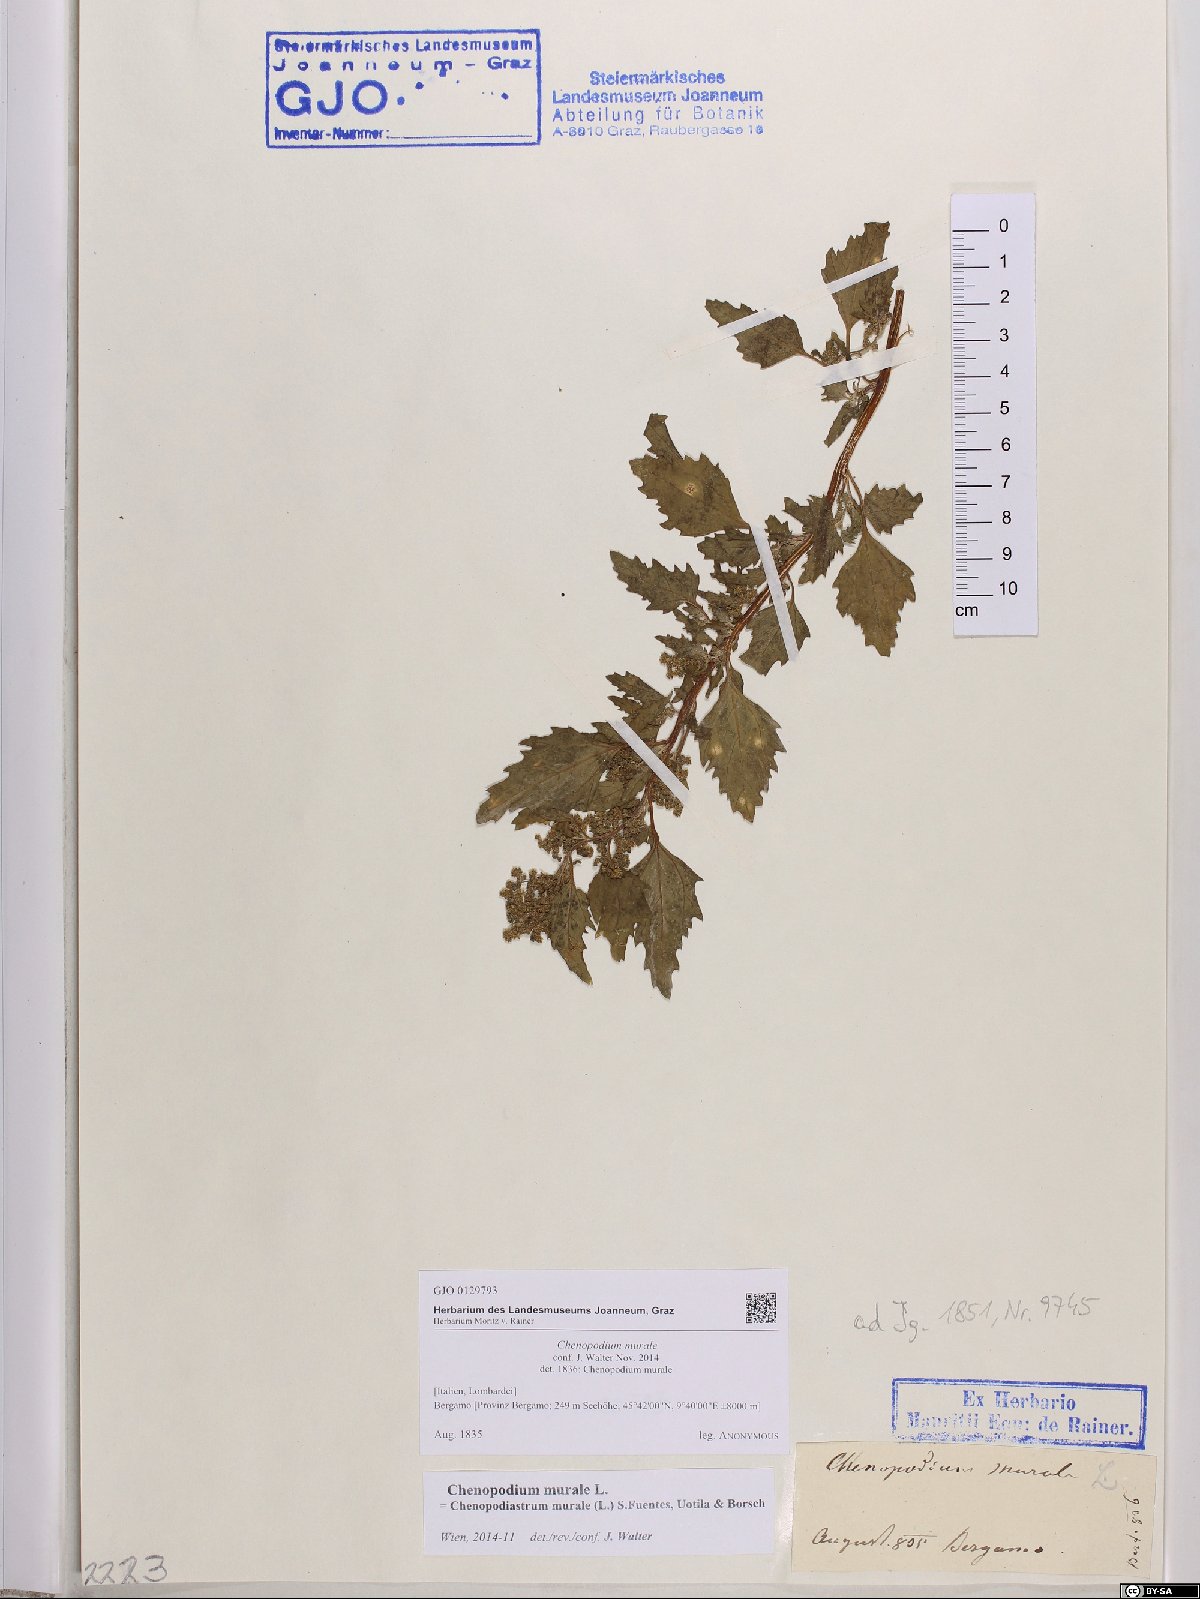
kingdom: Plantae
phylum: Tracheophyta
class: Magnoliopsida
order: Caryophyllales
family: Amaranthaceae
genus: Chenopodiastrum
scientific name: Chenopodiastrum murale
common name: Sowbane
